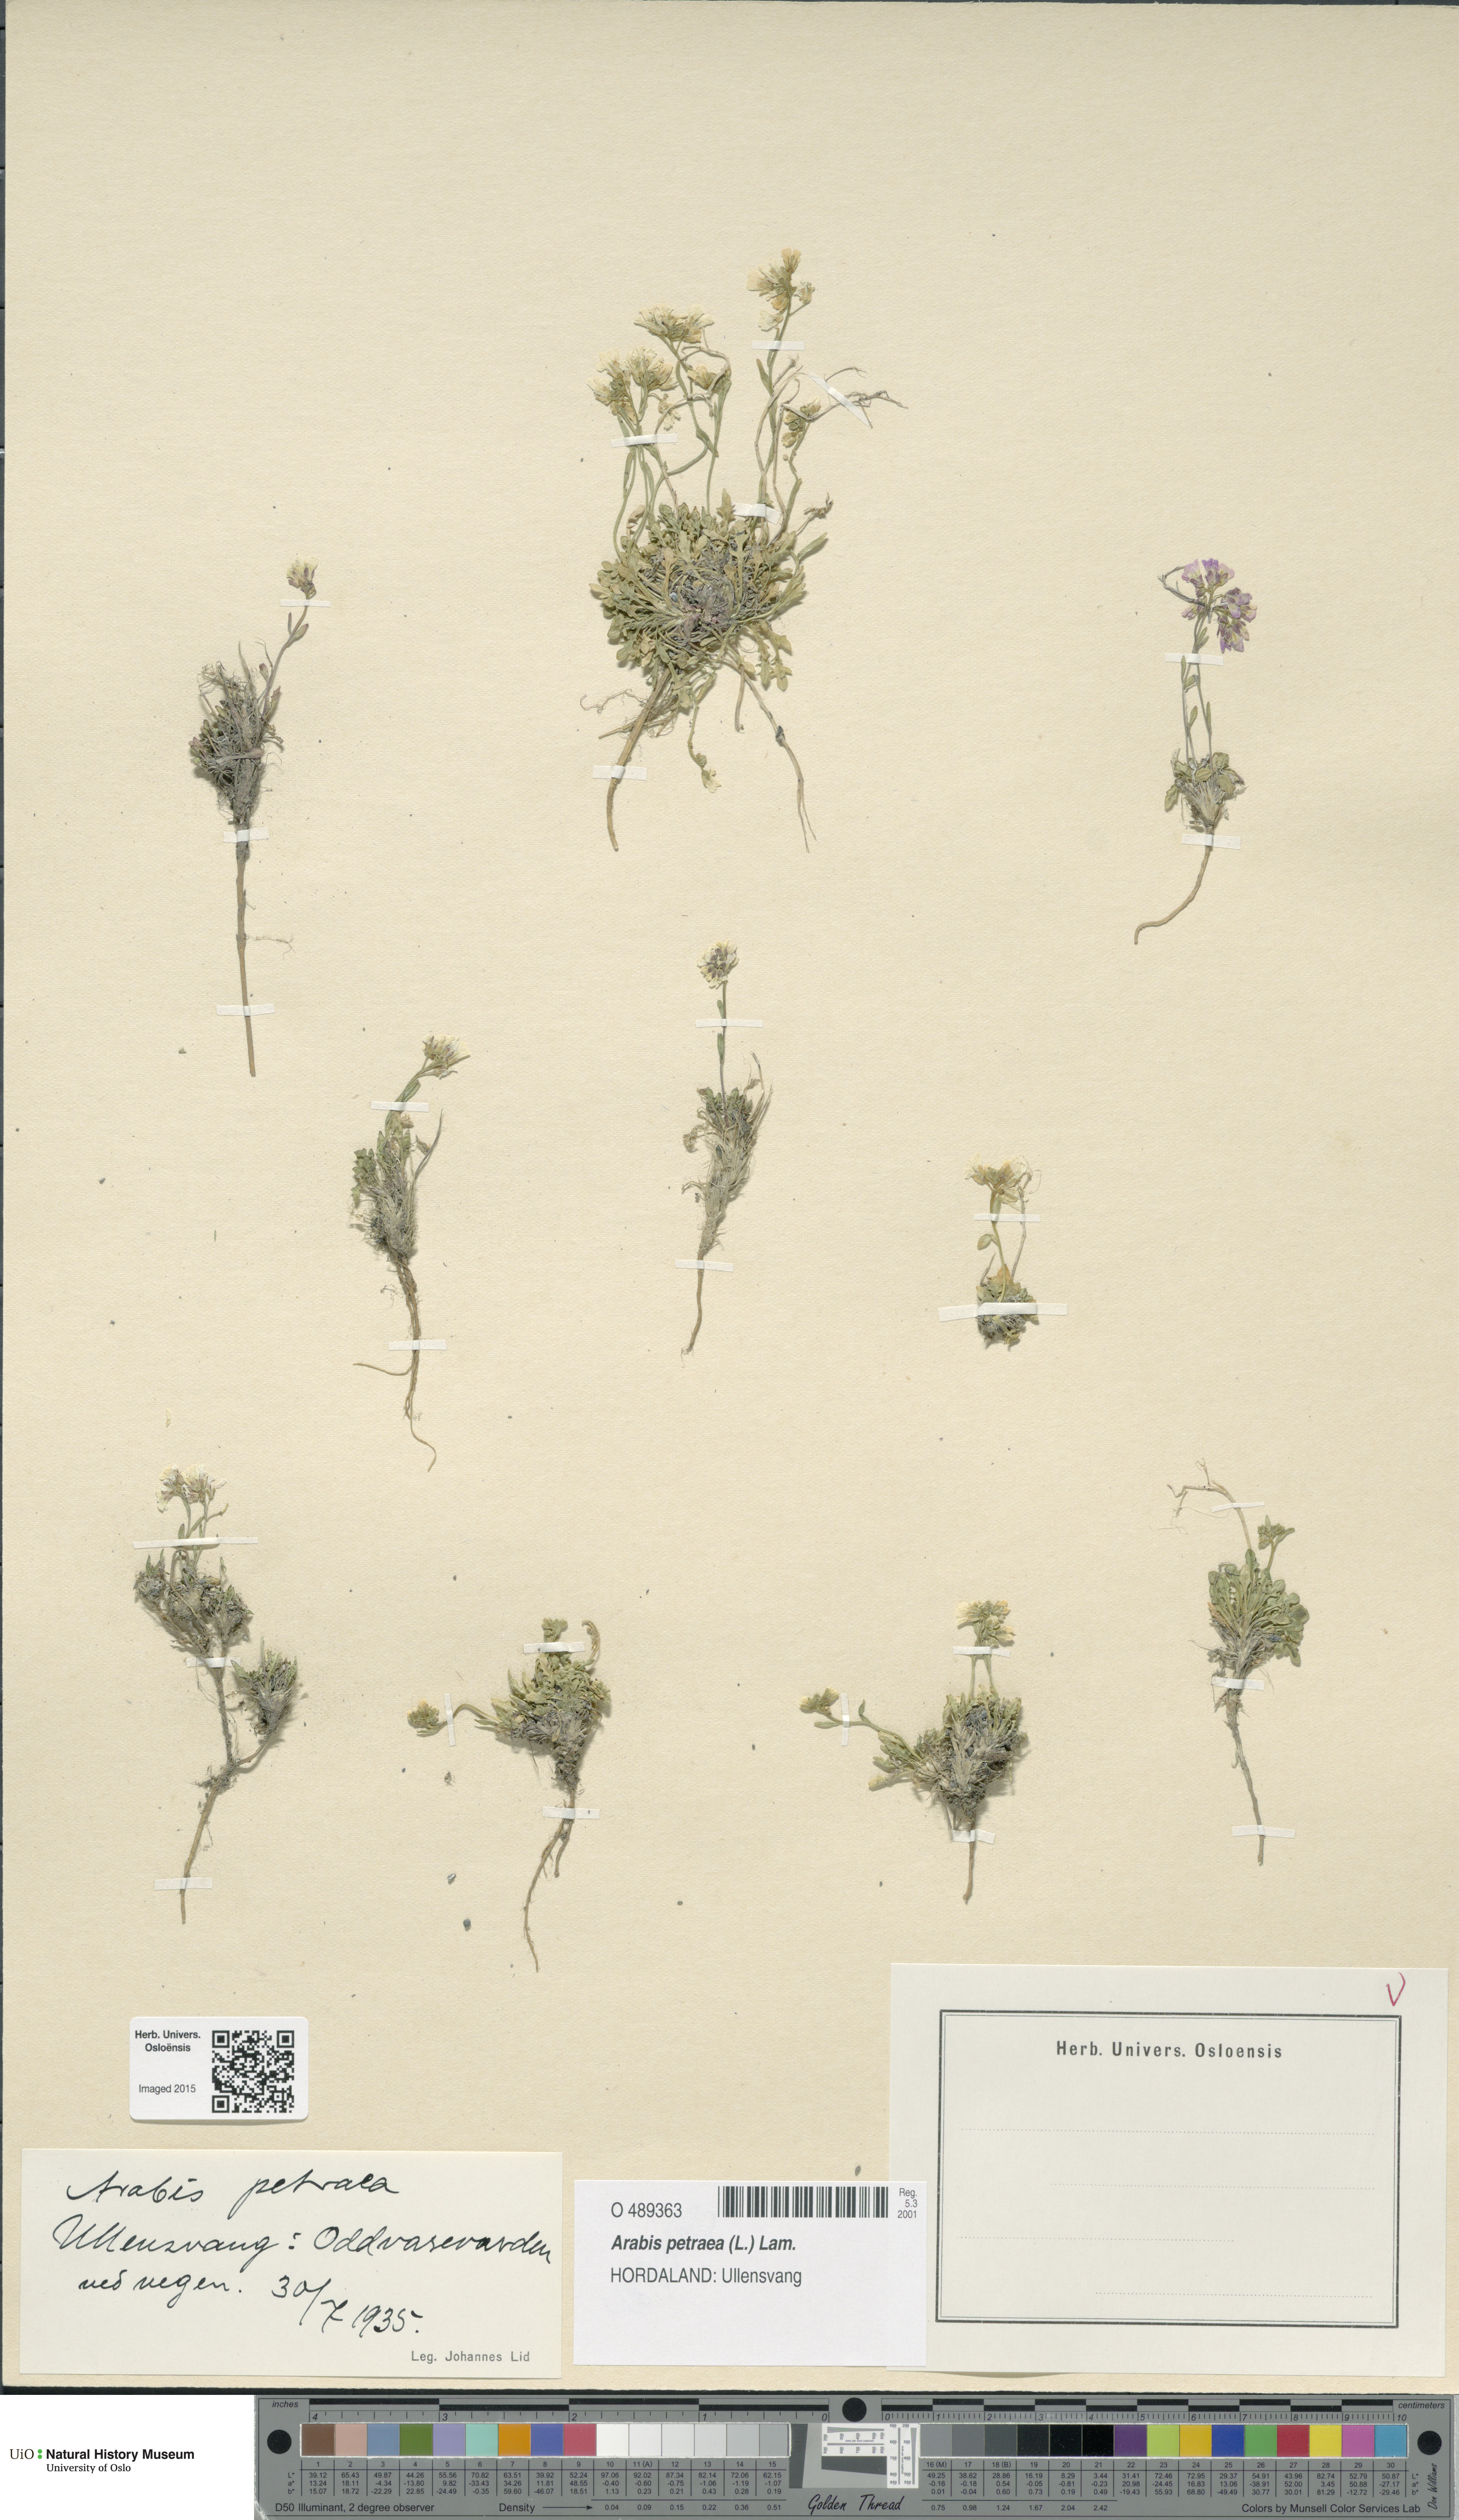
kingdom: Plantae
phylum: Tracheophyta
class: Magnoliopsida
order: Brassicales
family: Brassicaceae
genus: Arabidopsis
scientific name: Arabidopsis petraea
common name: Northern rock-cress
